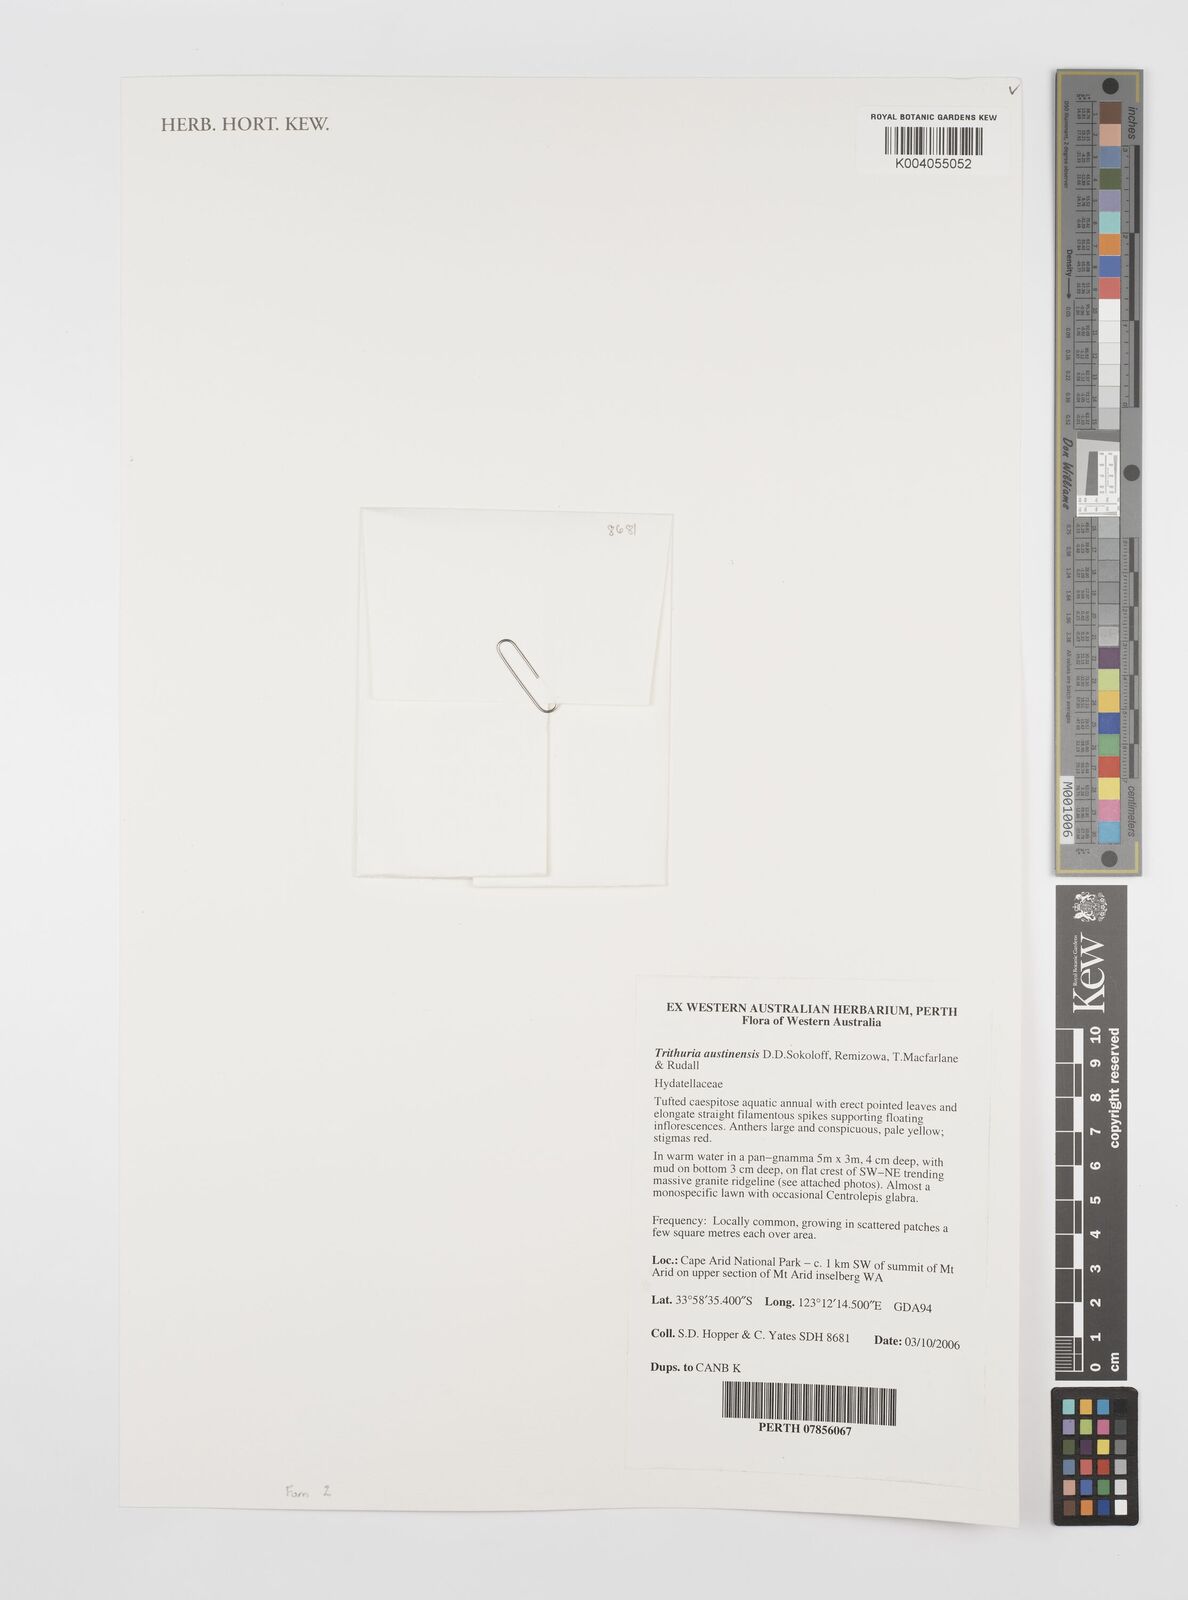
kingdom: Plantae
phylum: Tracheophyta
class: Magnoliopsida
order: Nymphaeales
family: Hydatellaceae
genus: Trithuria
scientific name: Trithuria austinensis
